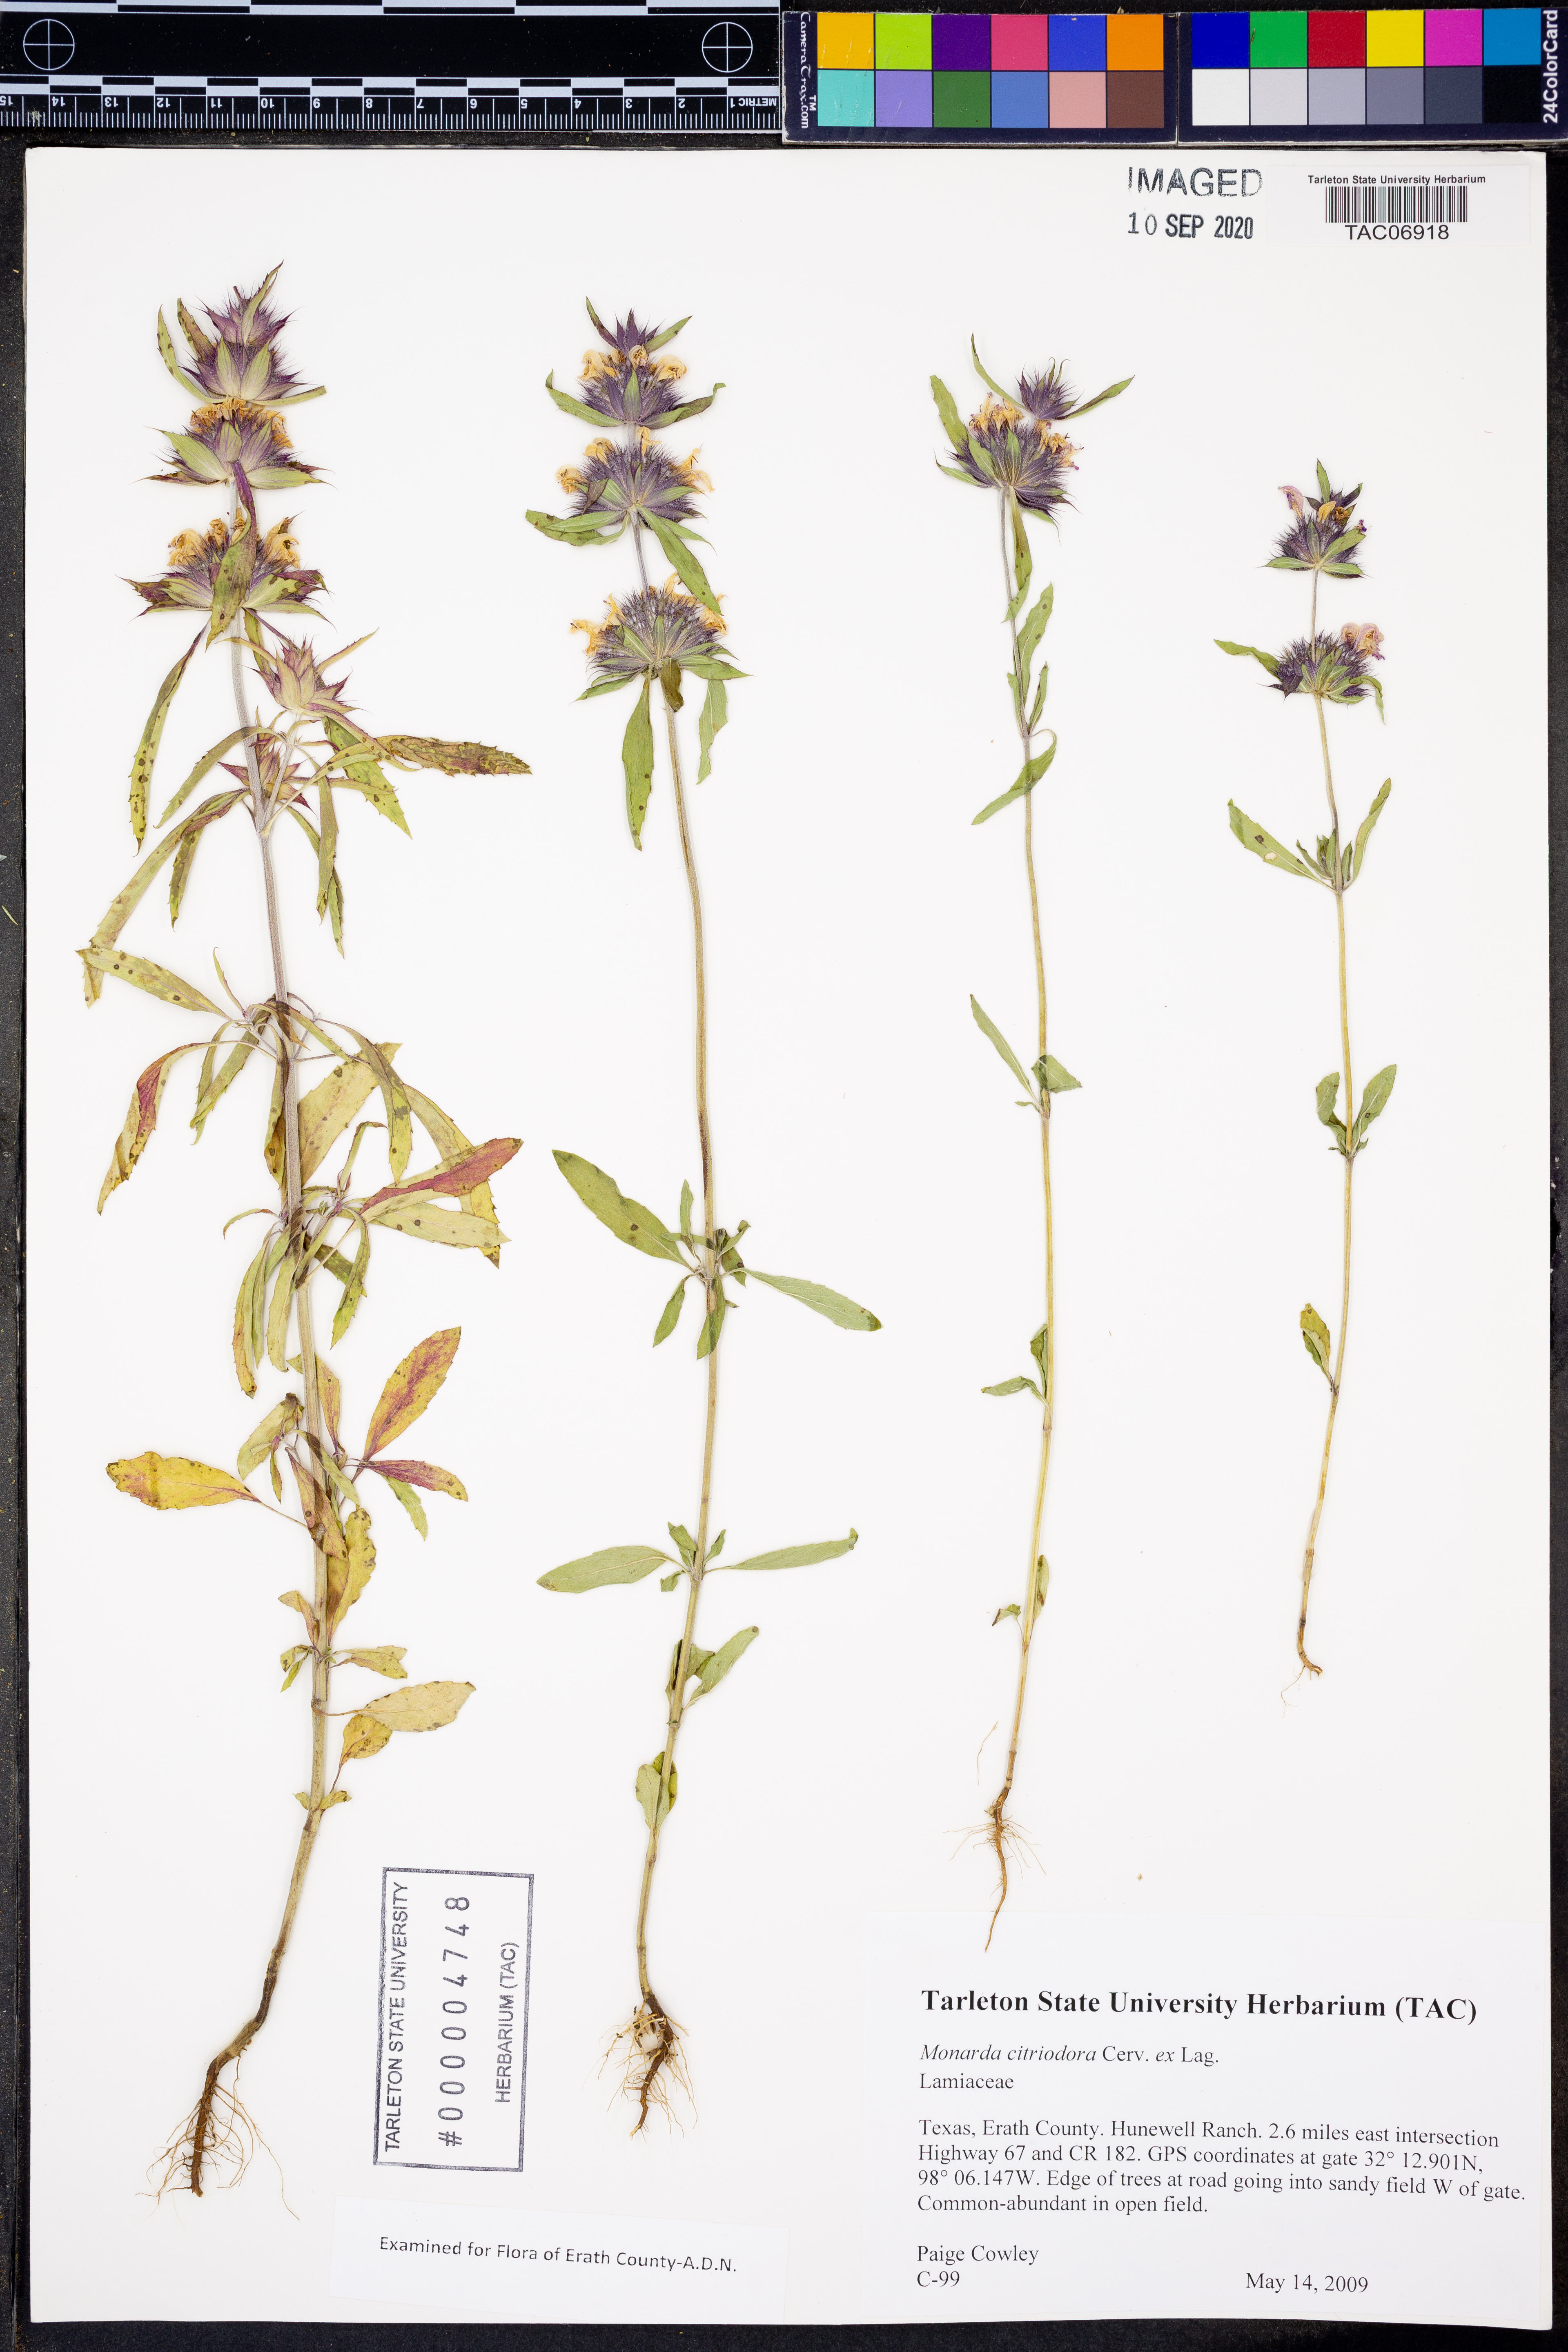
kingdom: Plantae
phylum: Tracheophyta
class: Magnoliopsida
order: Lamiales
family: Lamiaceae
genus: Monarda
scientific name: Monarda citriodora
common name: Lemon beebalm
